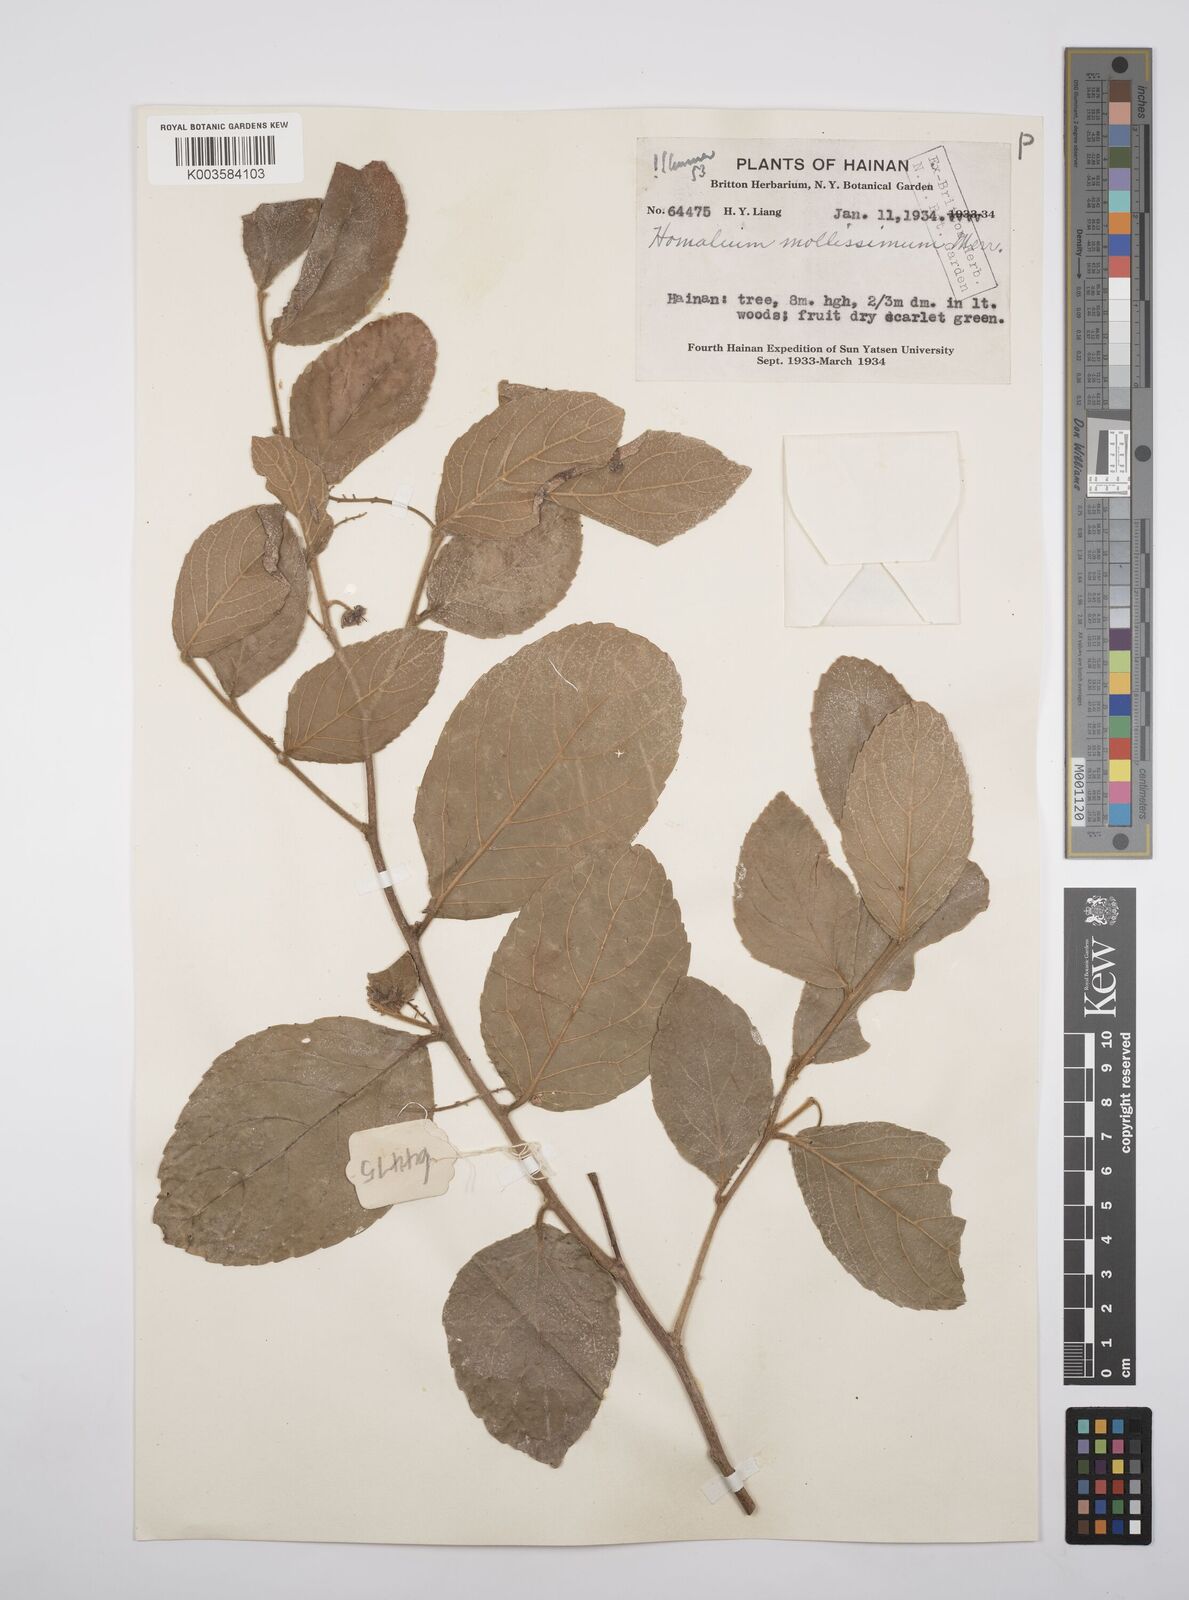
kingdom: Plantae
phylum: Tracheophyta
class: Magnoliopsida
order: Malpighiales
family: Salicaceae
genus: Homalium
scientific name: Homalium mollissimum
